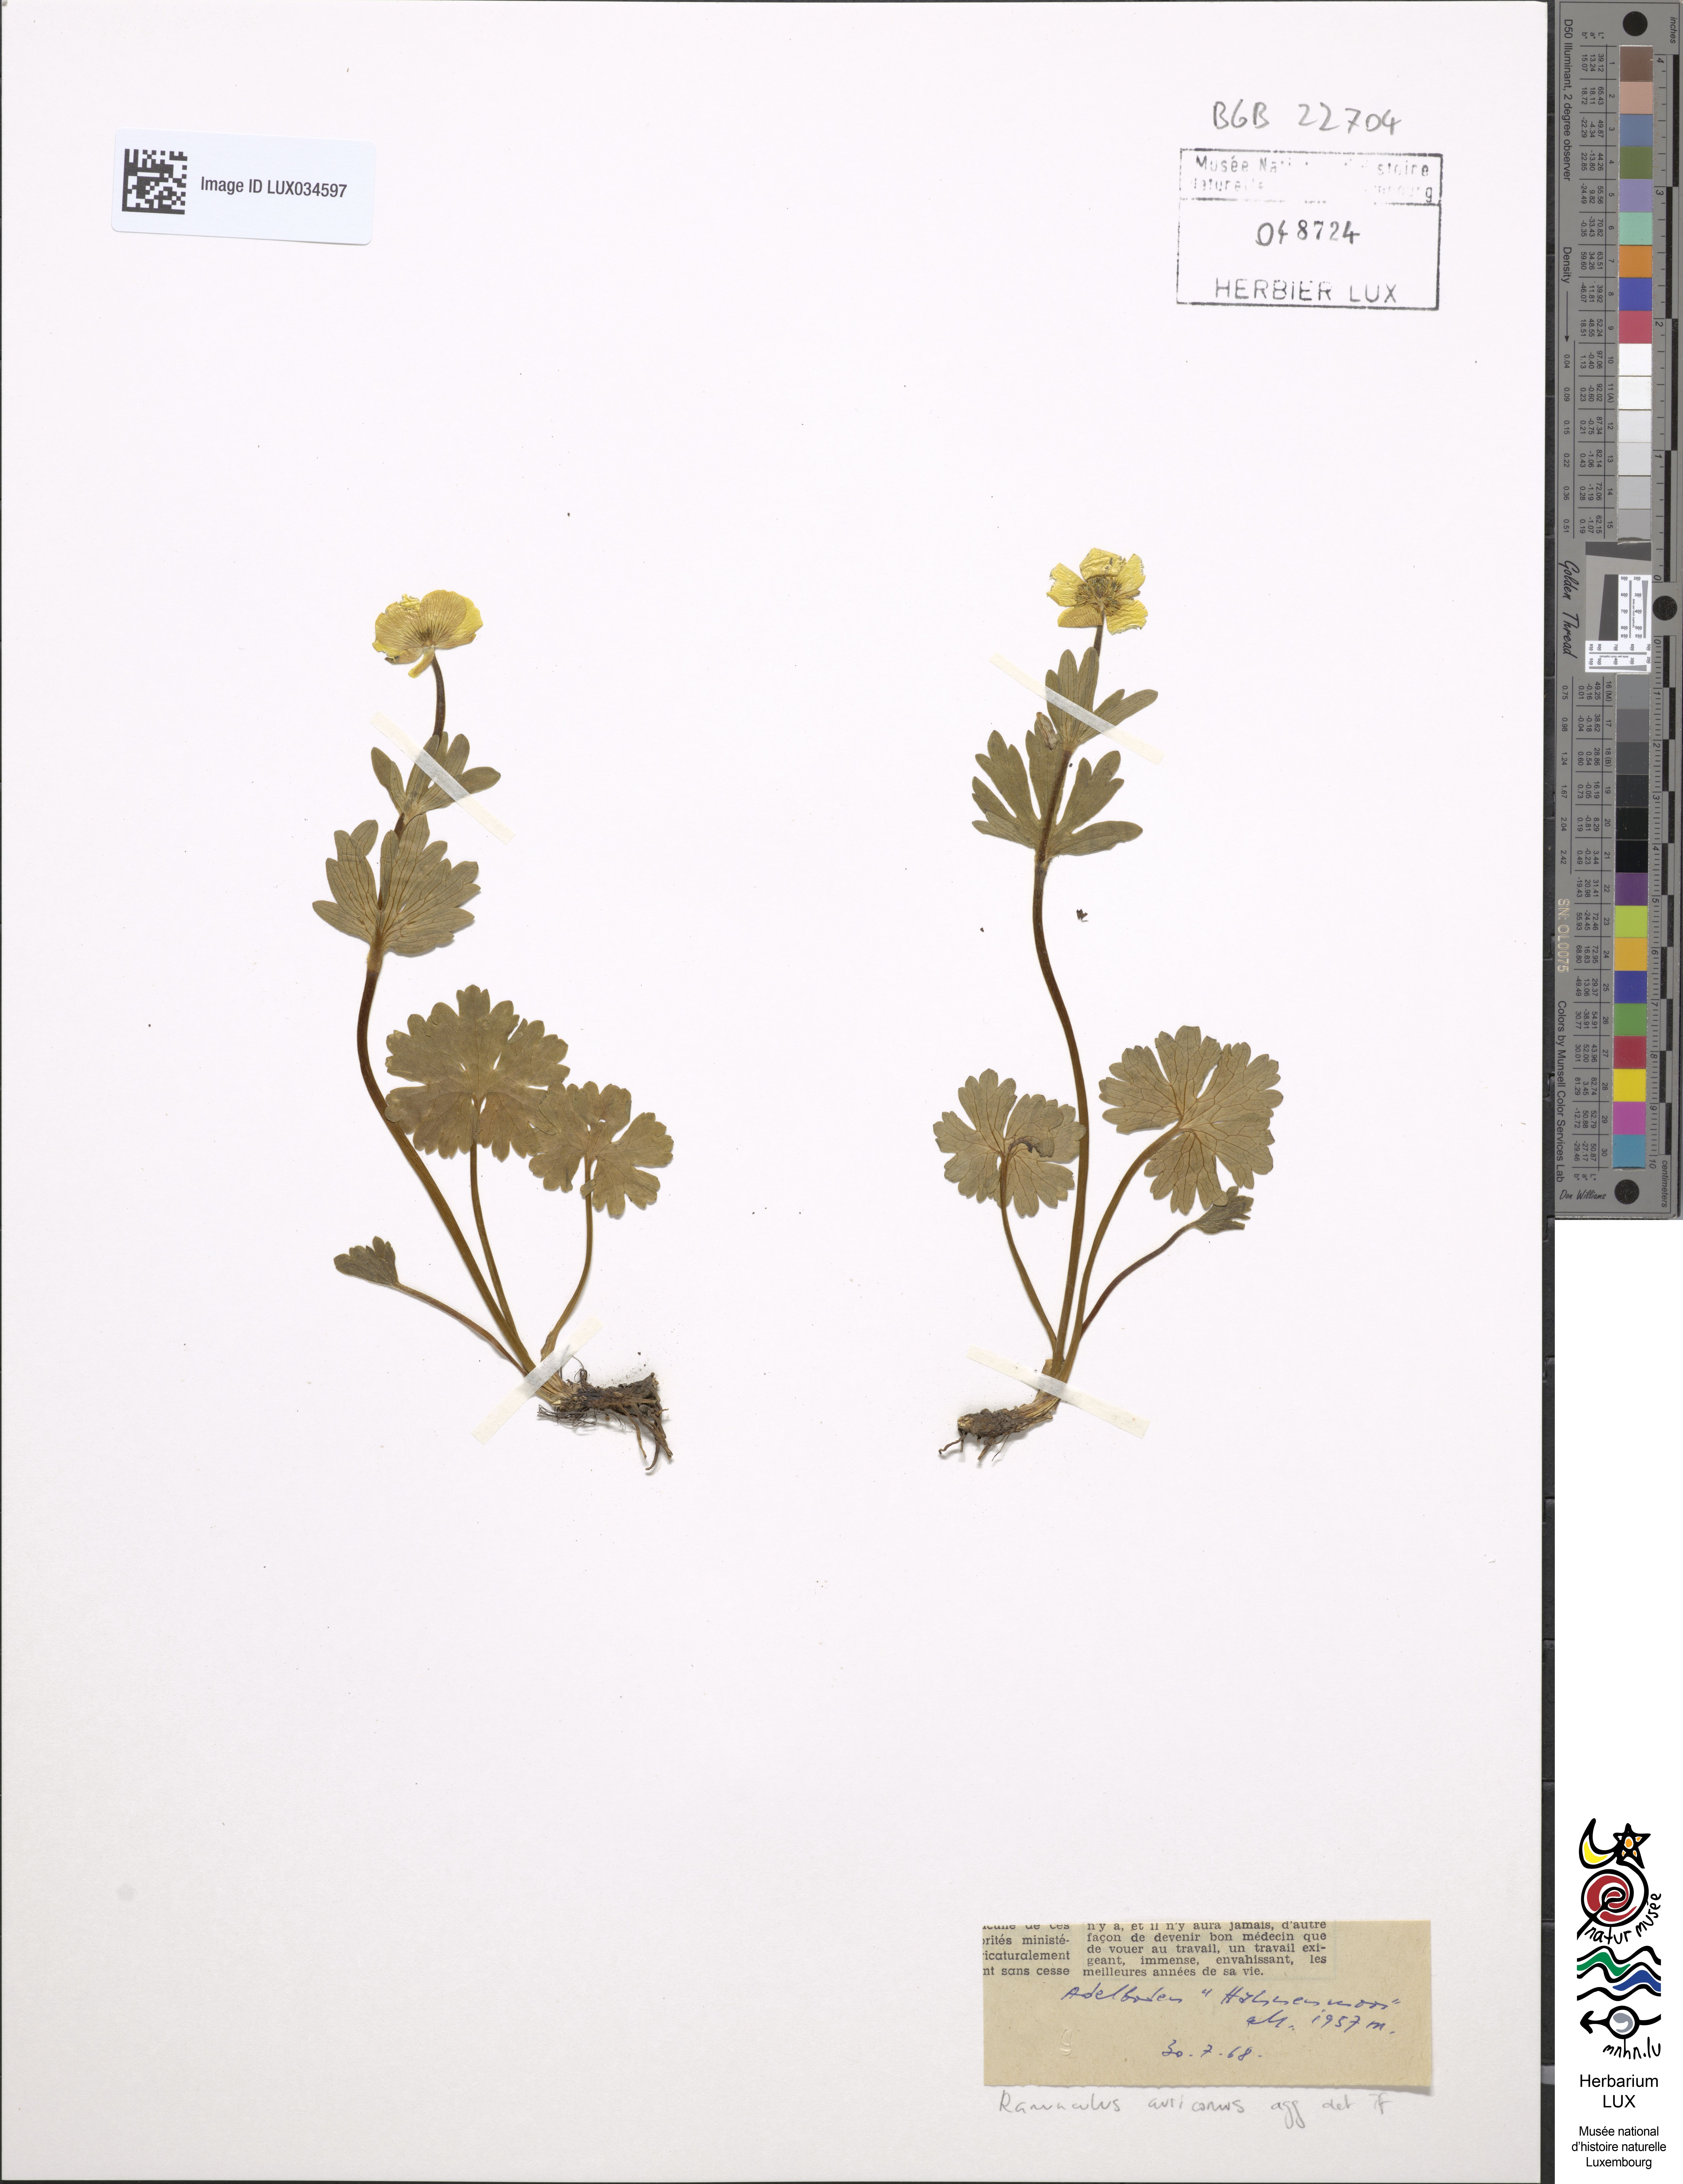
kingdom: Plantae
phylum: Tracheophyta
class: Magnoliopsida
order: Ranunculales
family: Ranunculaceae
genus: Ranunculus
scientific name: Ranunculus auricomus
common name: Goldilocks buttercup
